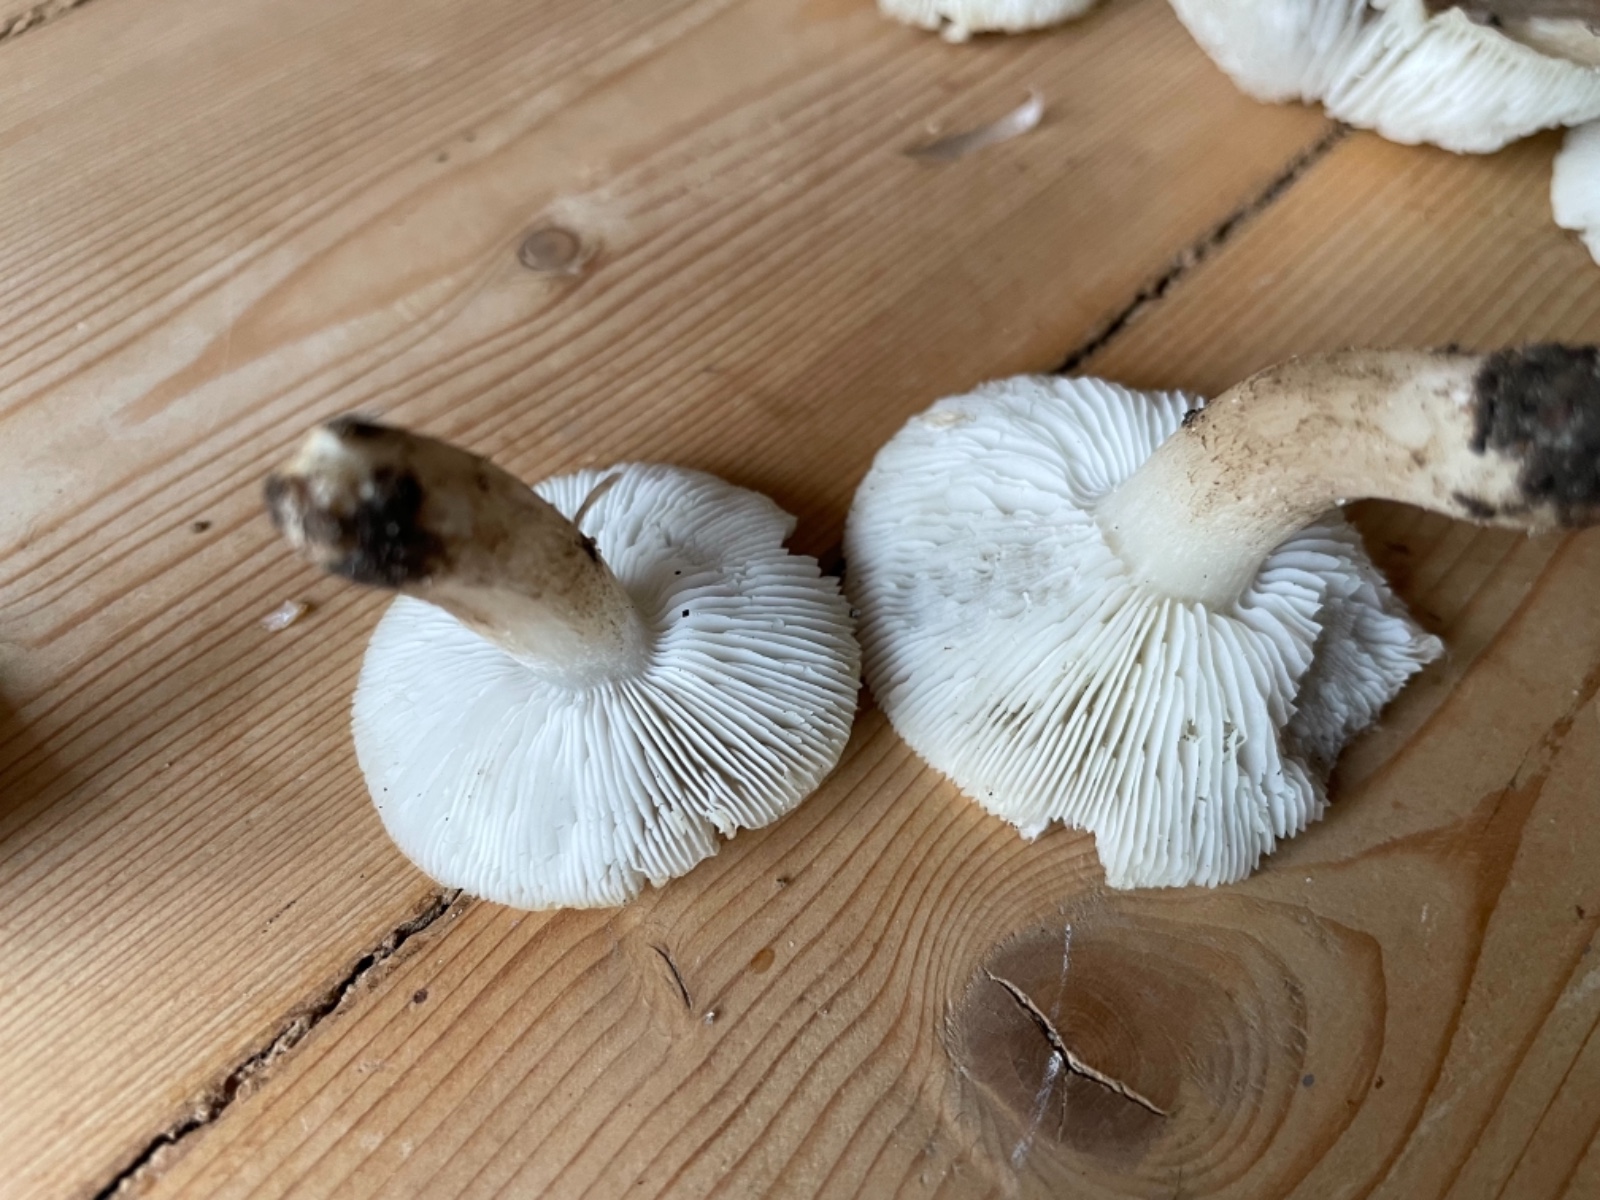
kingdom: Fungi
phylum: Basidiomycota
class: Agaricomycetes
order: Agaricales
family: Tricholomataceae
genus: Tricholoma
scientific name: Tricholoma argyraceum
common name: spids ridderhat
